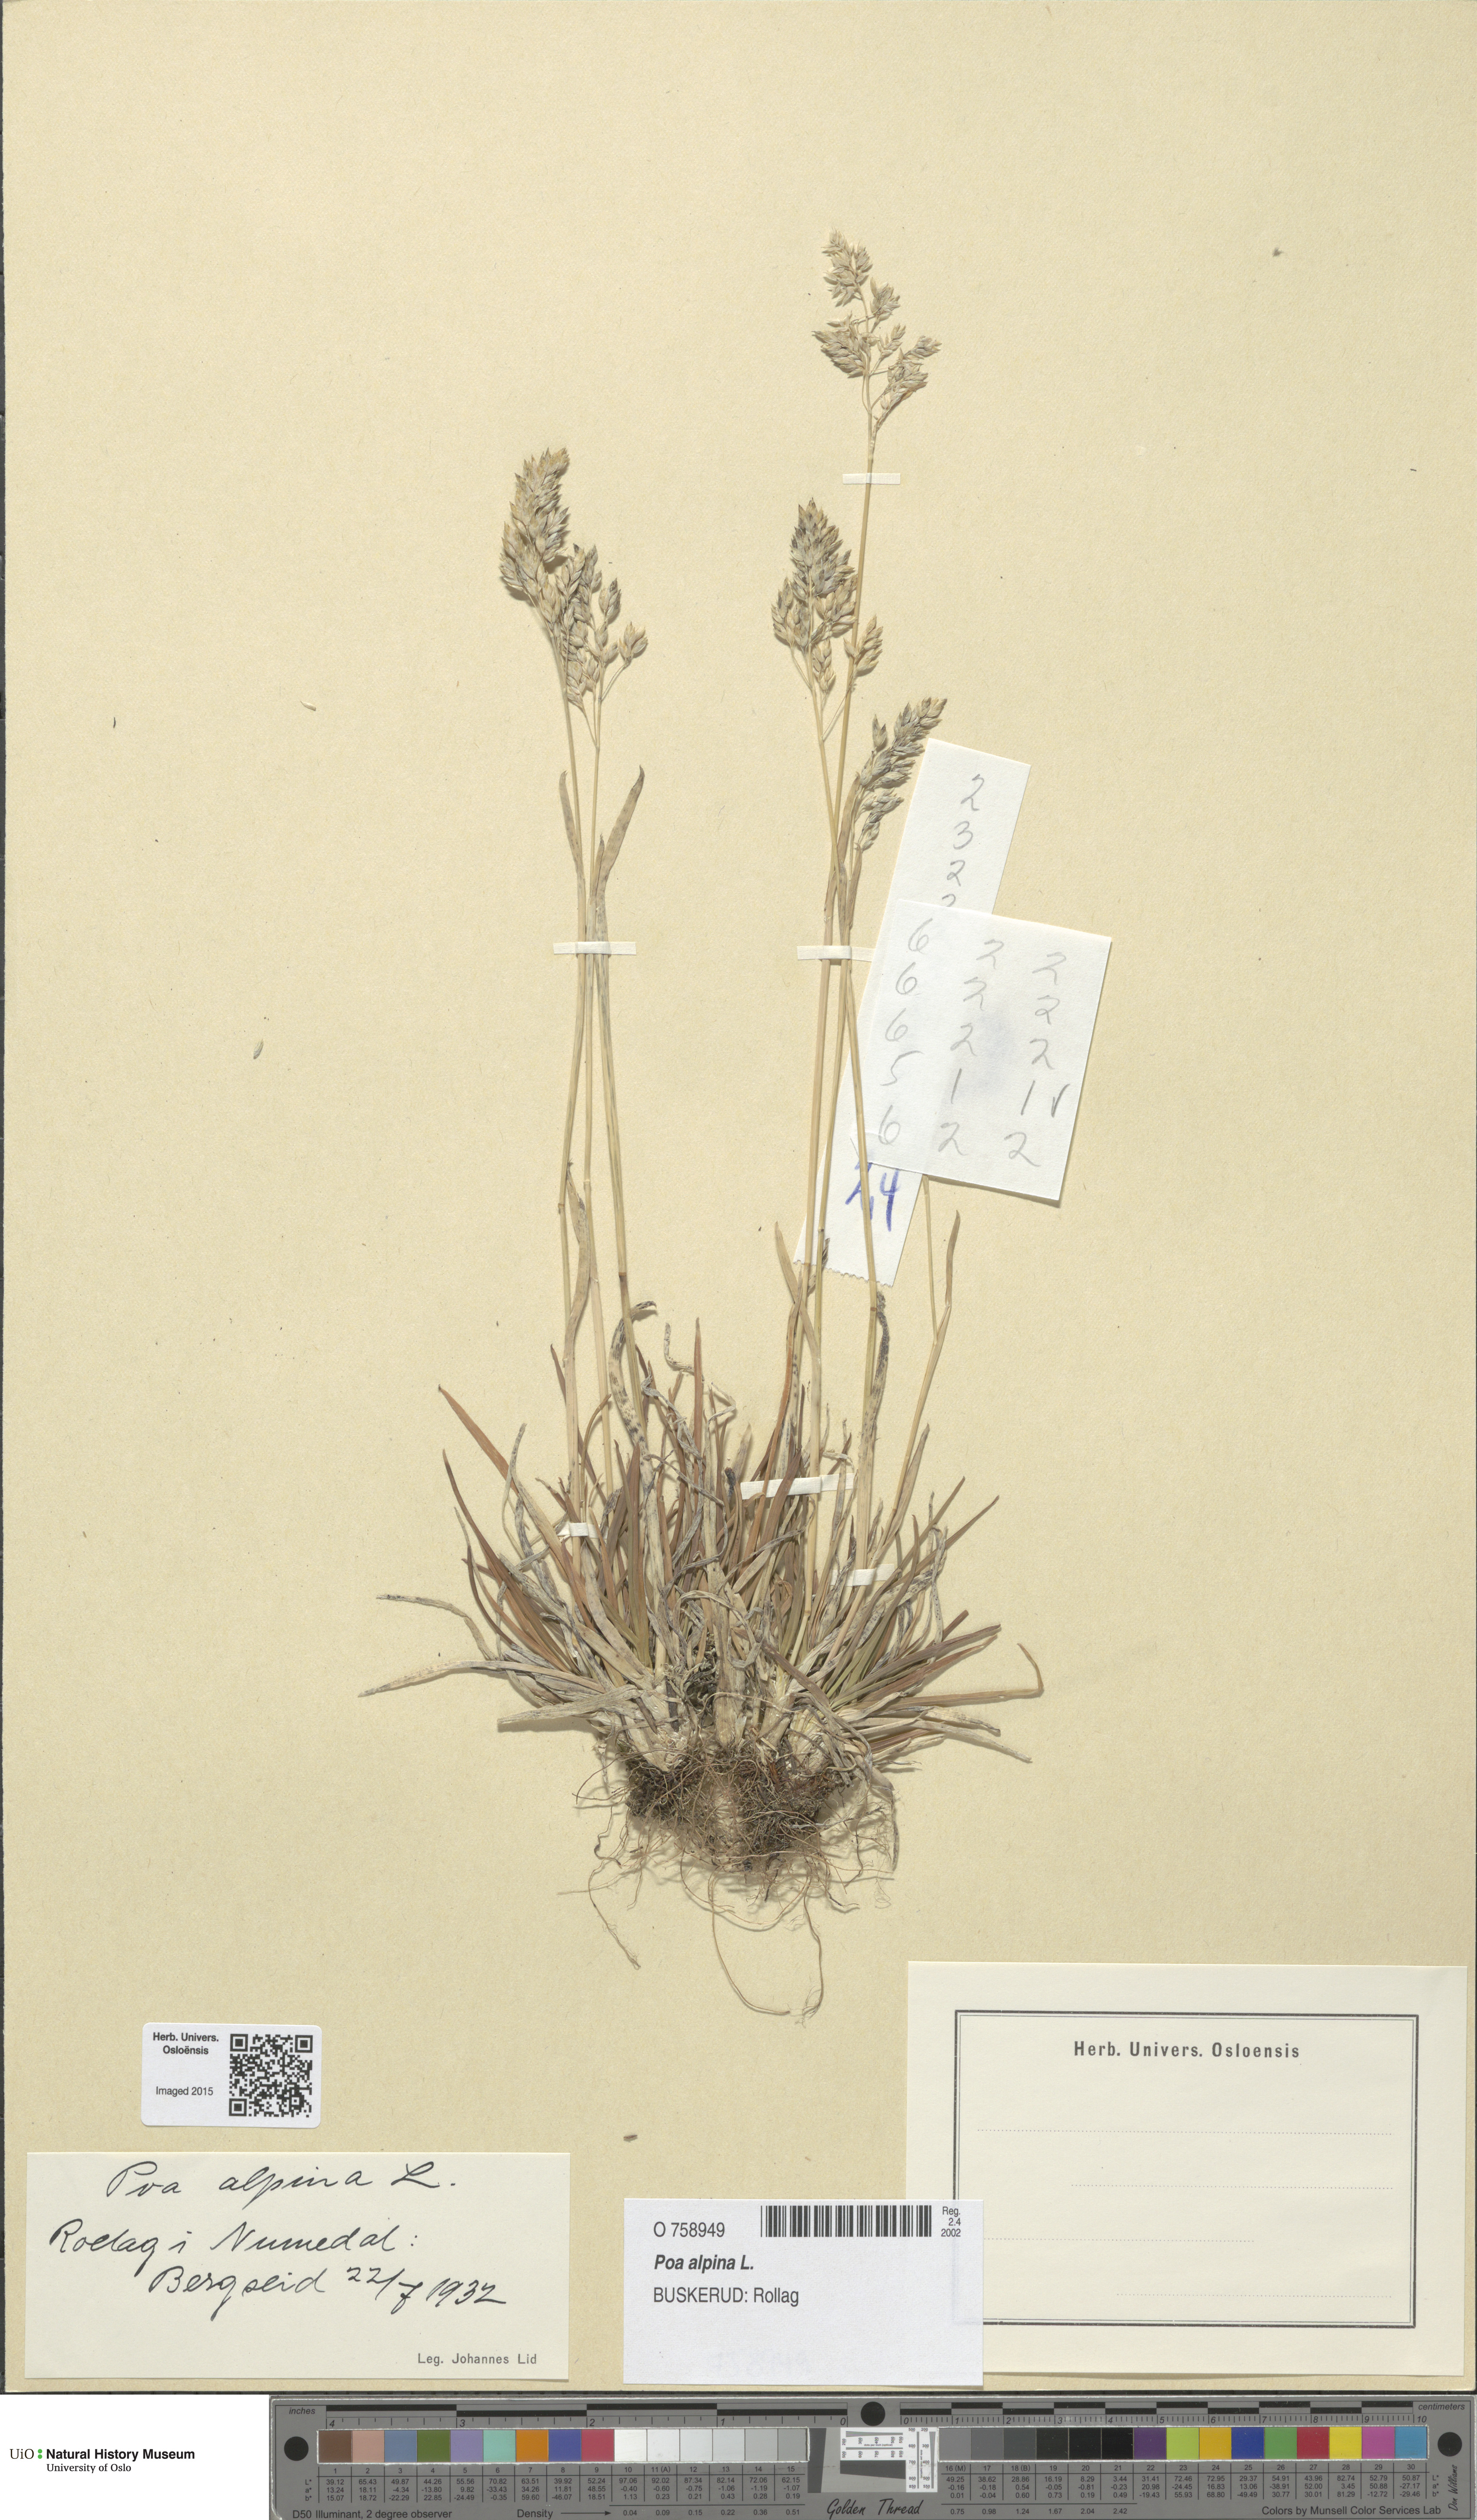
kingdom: Plantae
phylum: Tracheophyta
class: Liliopsida
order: Poales
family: Poaceae
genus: Poa
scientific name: Poa alpina
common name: Alpine bluegrass
